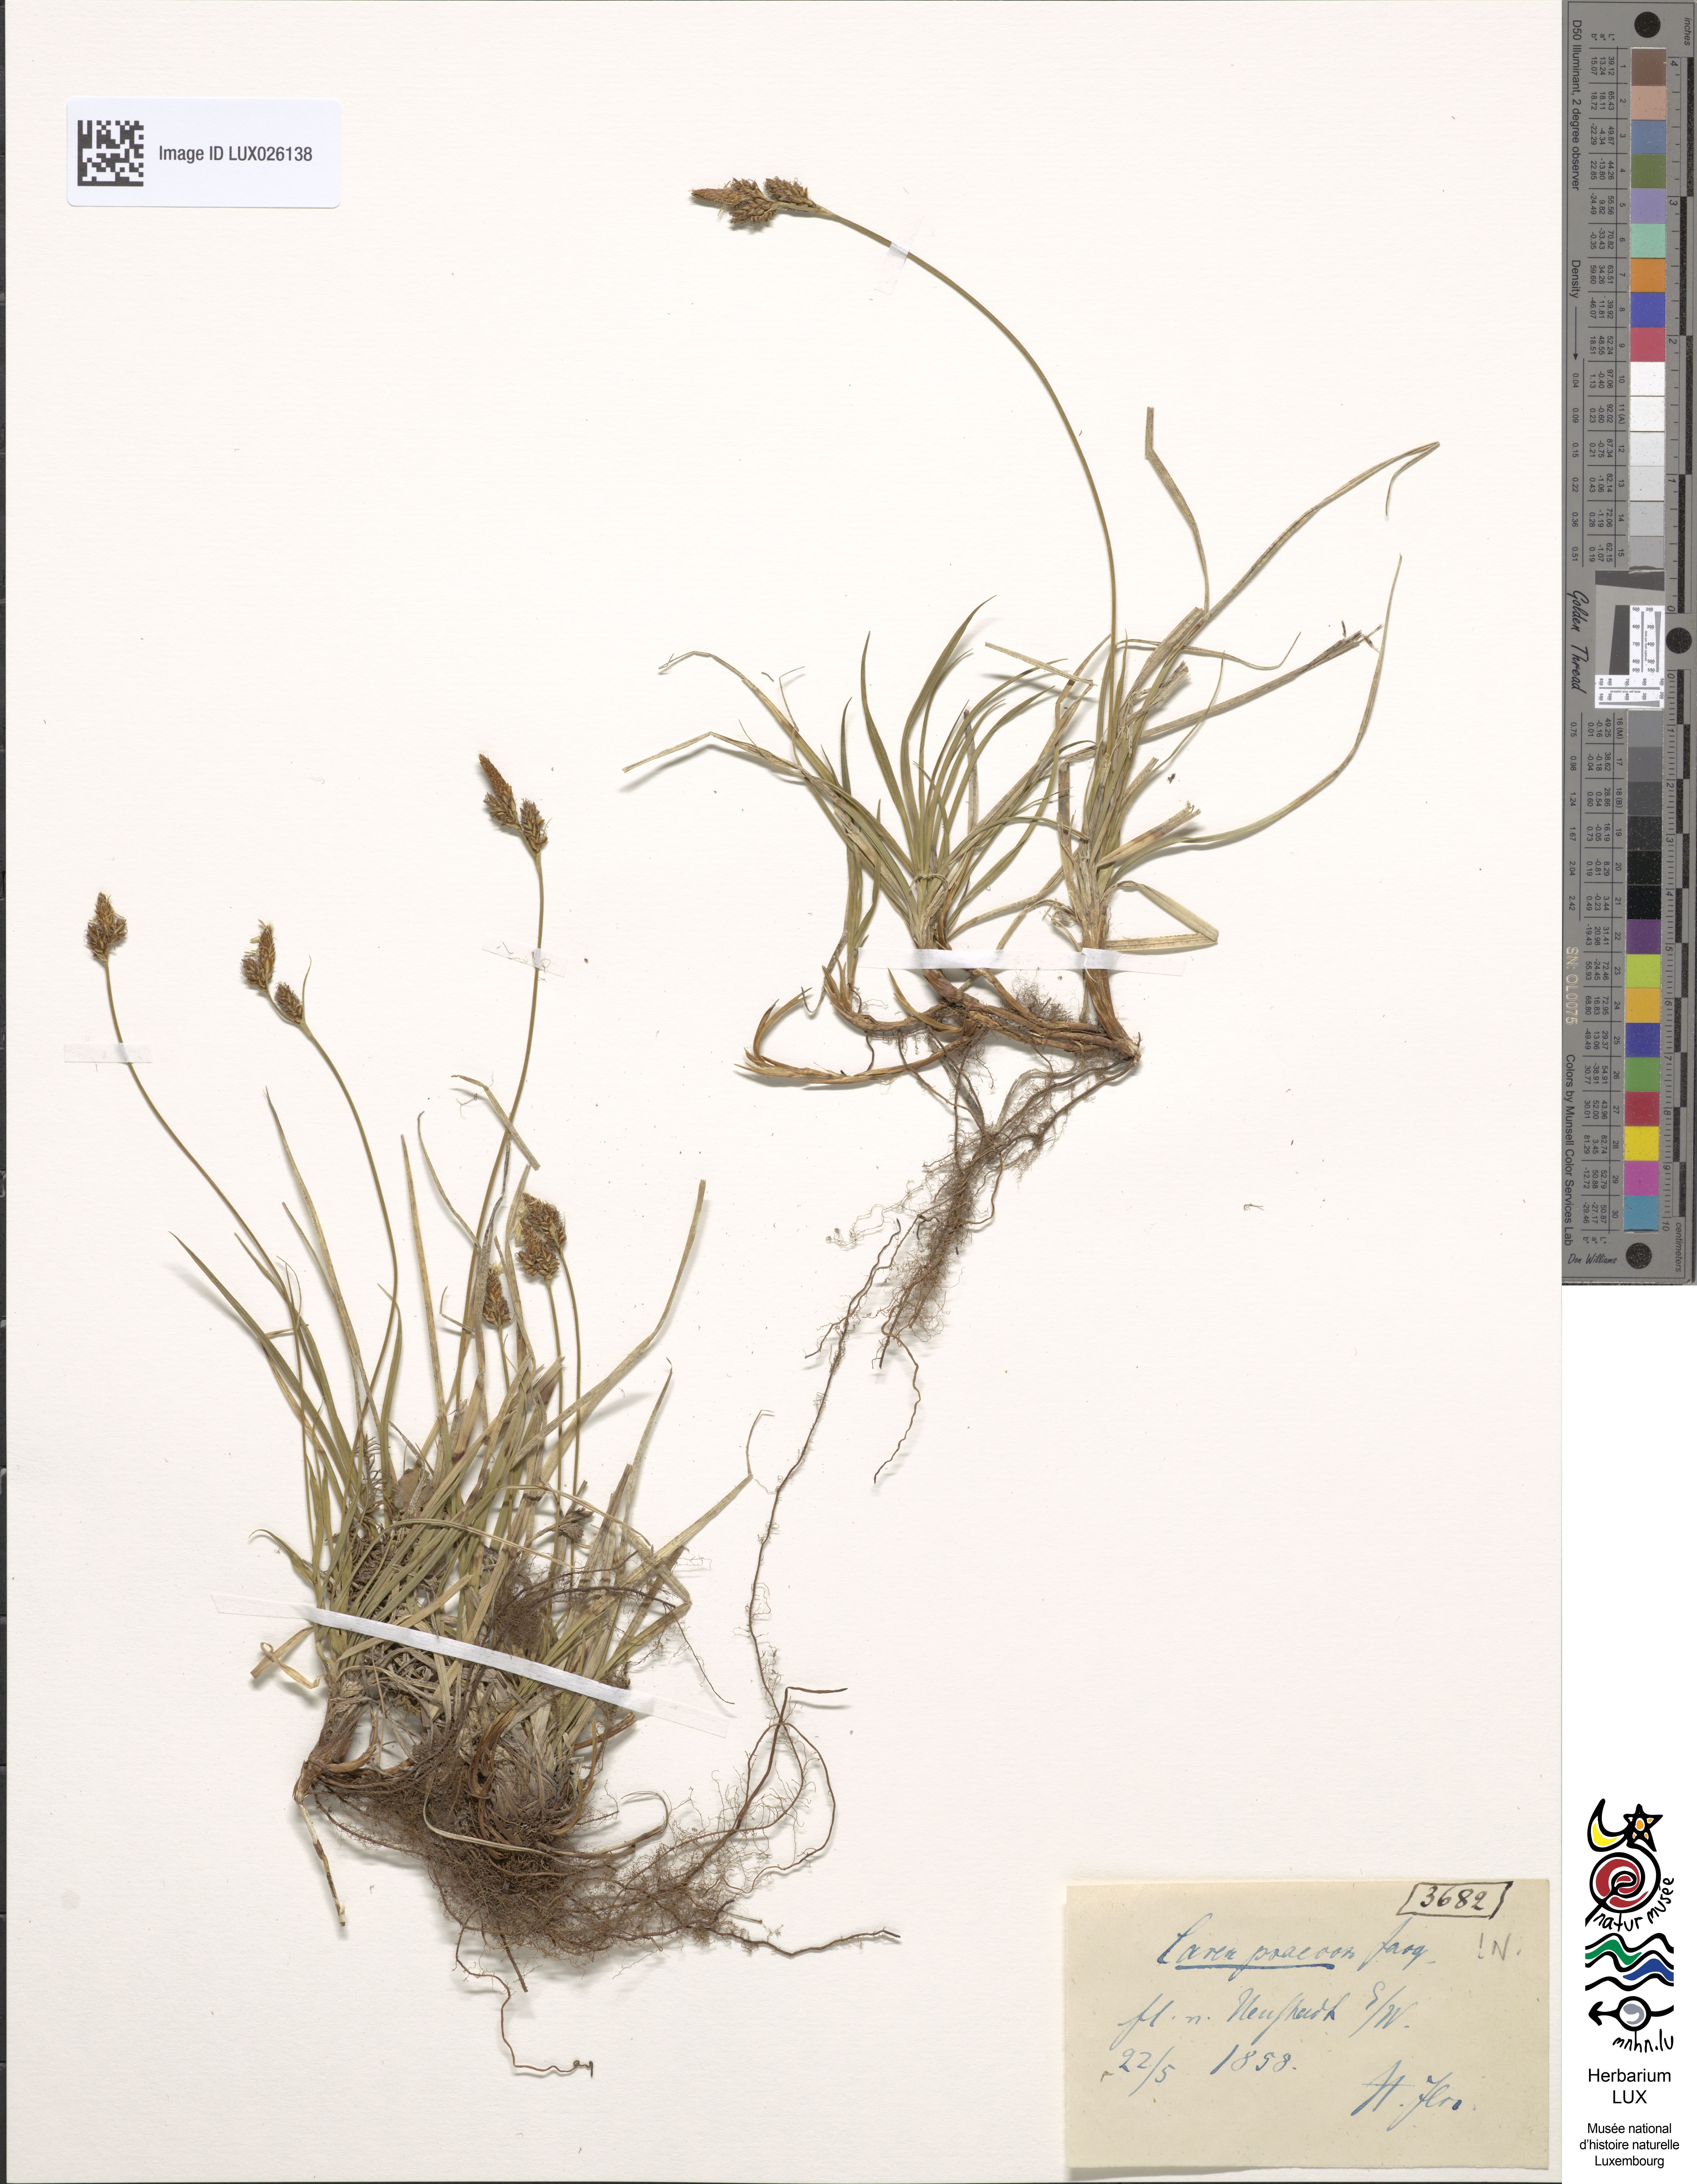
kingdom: Plantae
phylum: Tracheophyta
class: Liliopsida
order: Poales
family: Cyperaceae
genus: Carex
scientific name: Carex caryophyllea
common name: Spring sedge
